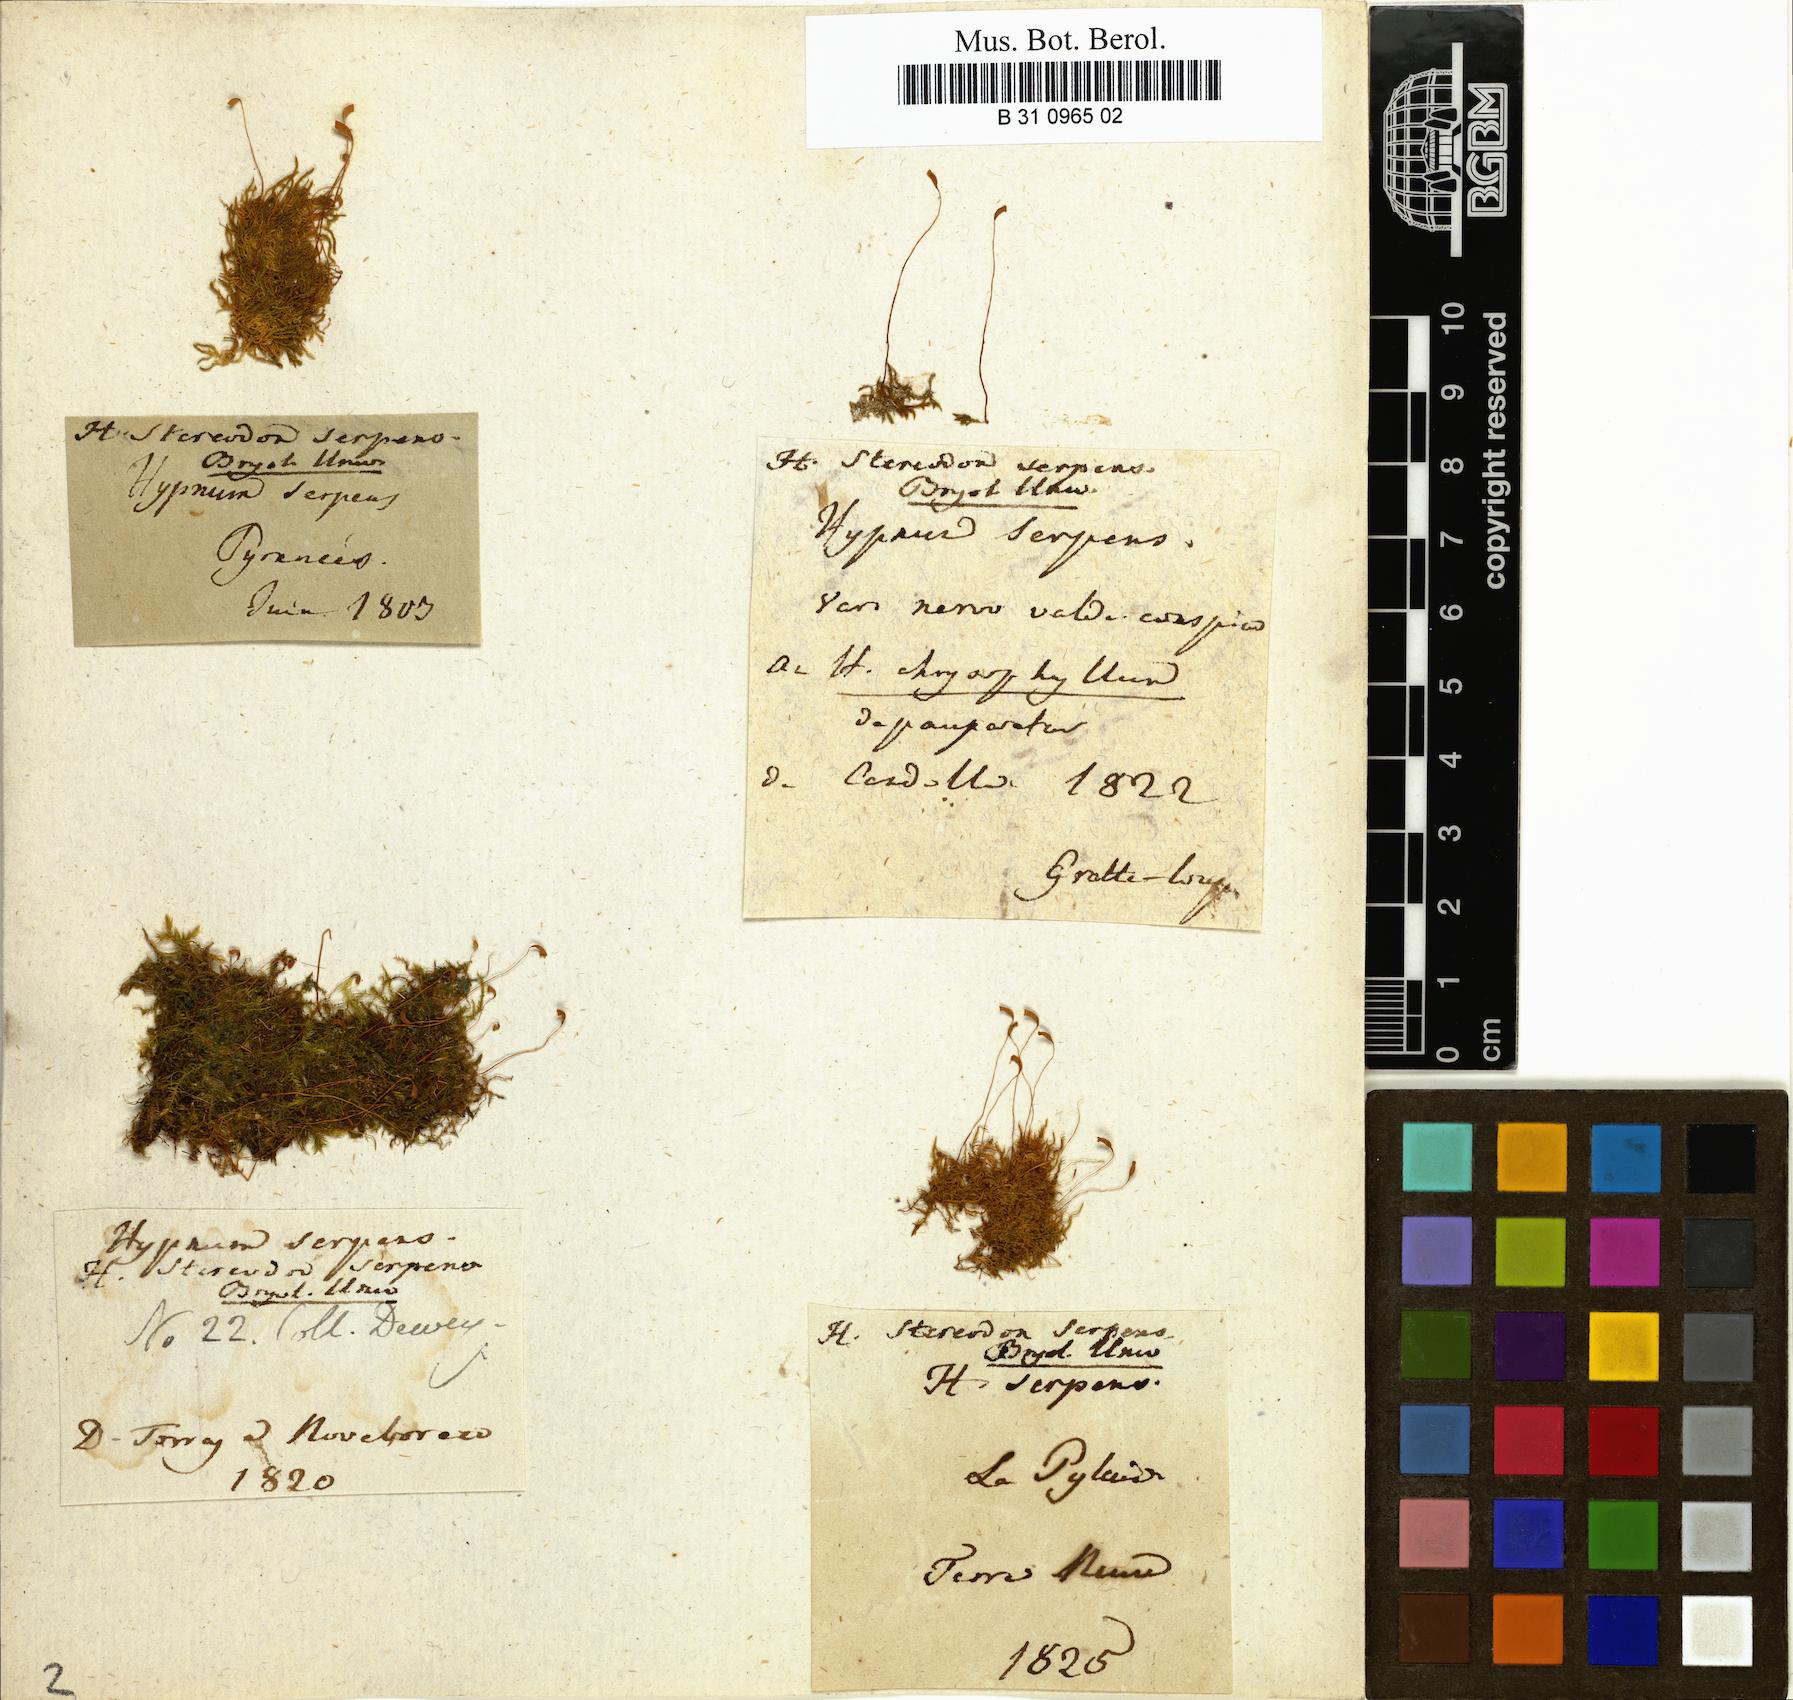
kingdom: Plantae
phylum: Bryophyta
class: Bryopsida
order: Hypnales
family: Amblystegiaceae
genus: Amblystegium
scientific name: Amblystegium serpens
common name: Jurkatzka's feather moss
